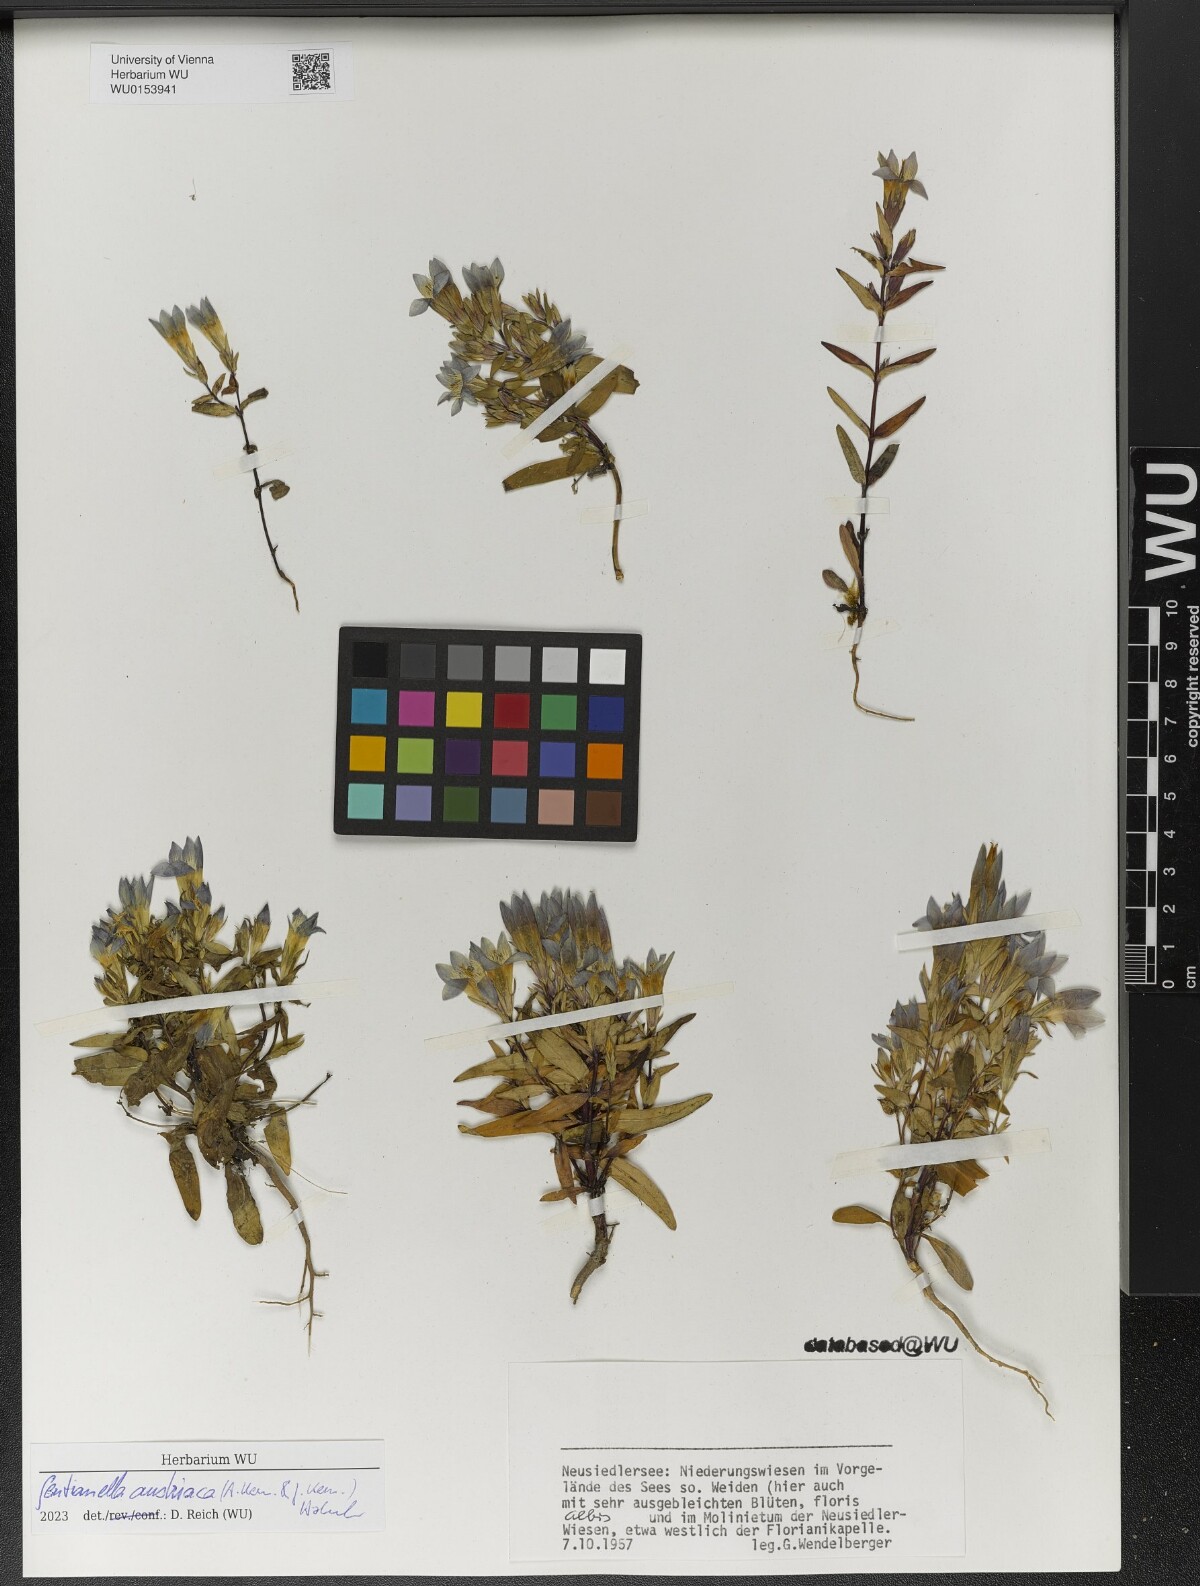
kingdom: Plantae
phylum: Tracheophyta
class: Magnoliopsida
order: Gentianales
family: Gentianaceae
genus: Gentianella
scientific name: Gentianella austriaca
